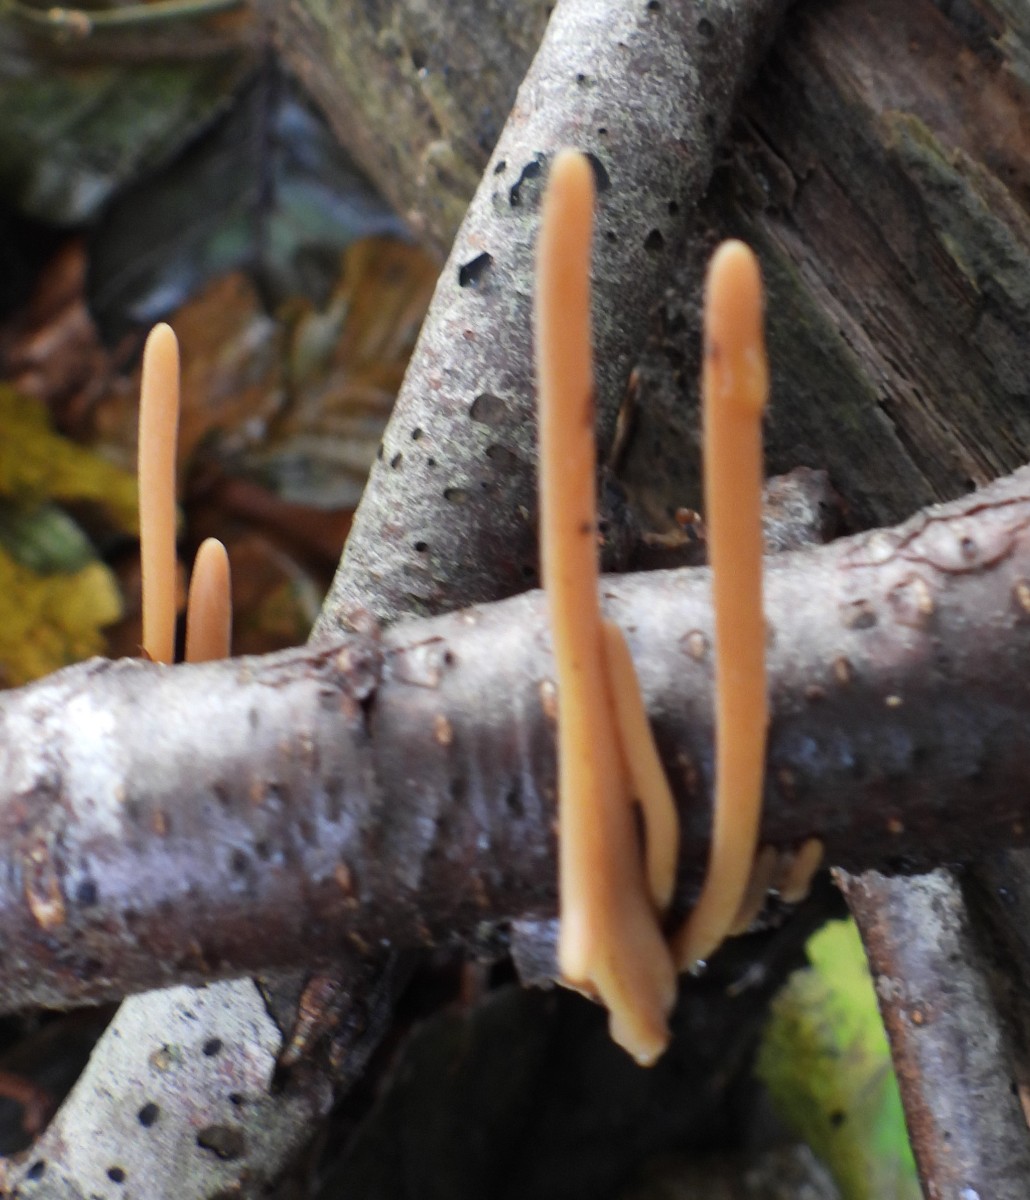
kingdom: Fungi
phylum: Basidiomycota
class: Agaricomycetes
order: Agaricales
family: Typhulaceae
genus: Typhula
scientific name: Typhula fistulosa
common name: pibet rørkølle
